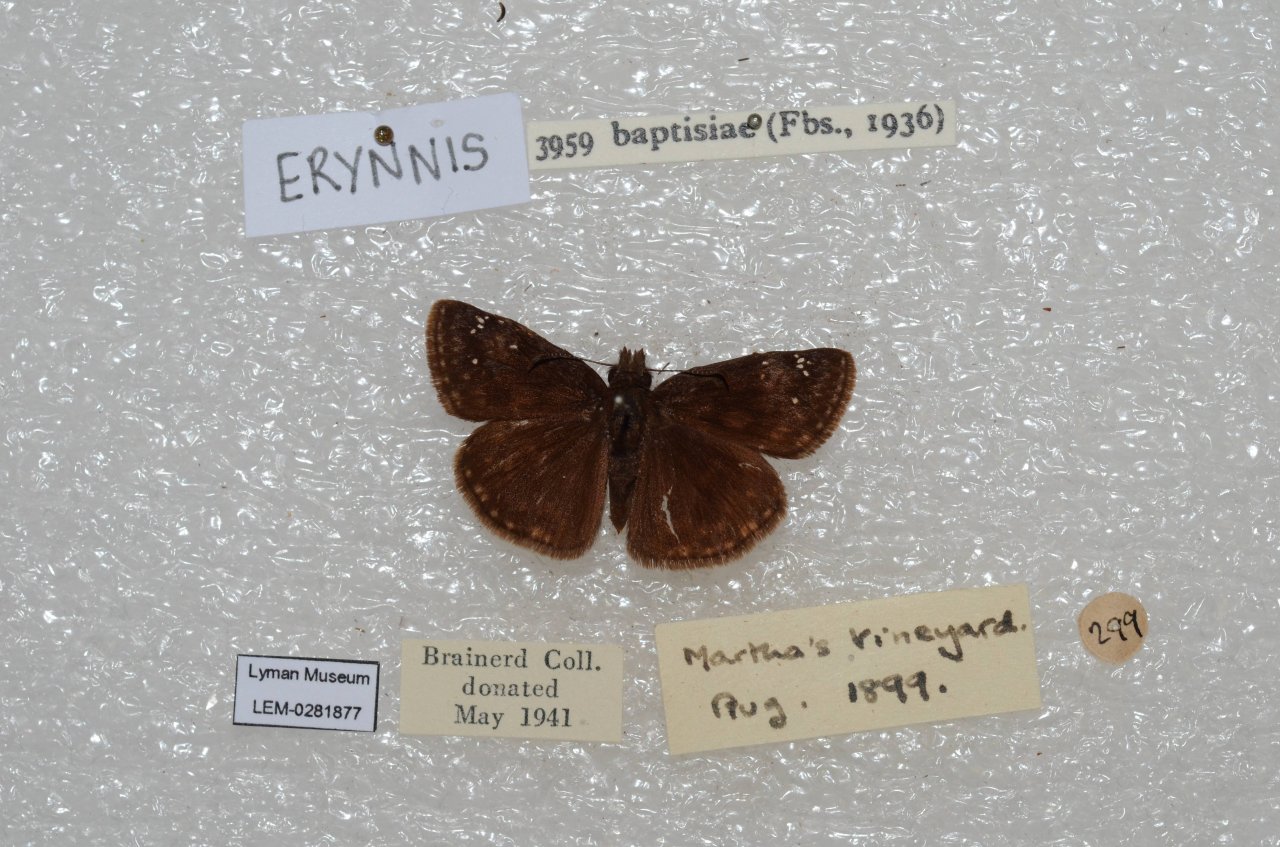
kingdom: Animalia
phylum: Arthropoda
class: Insecta
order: Lepidoptera
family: Hesperiidae
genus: Gesta
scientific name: Gesta
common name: Wild Indigo Duskywing
